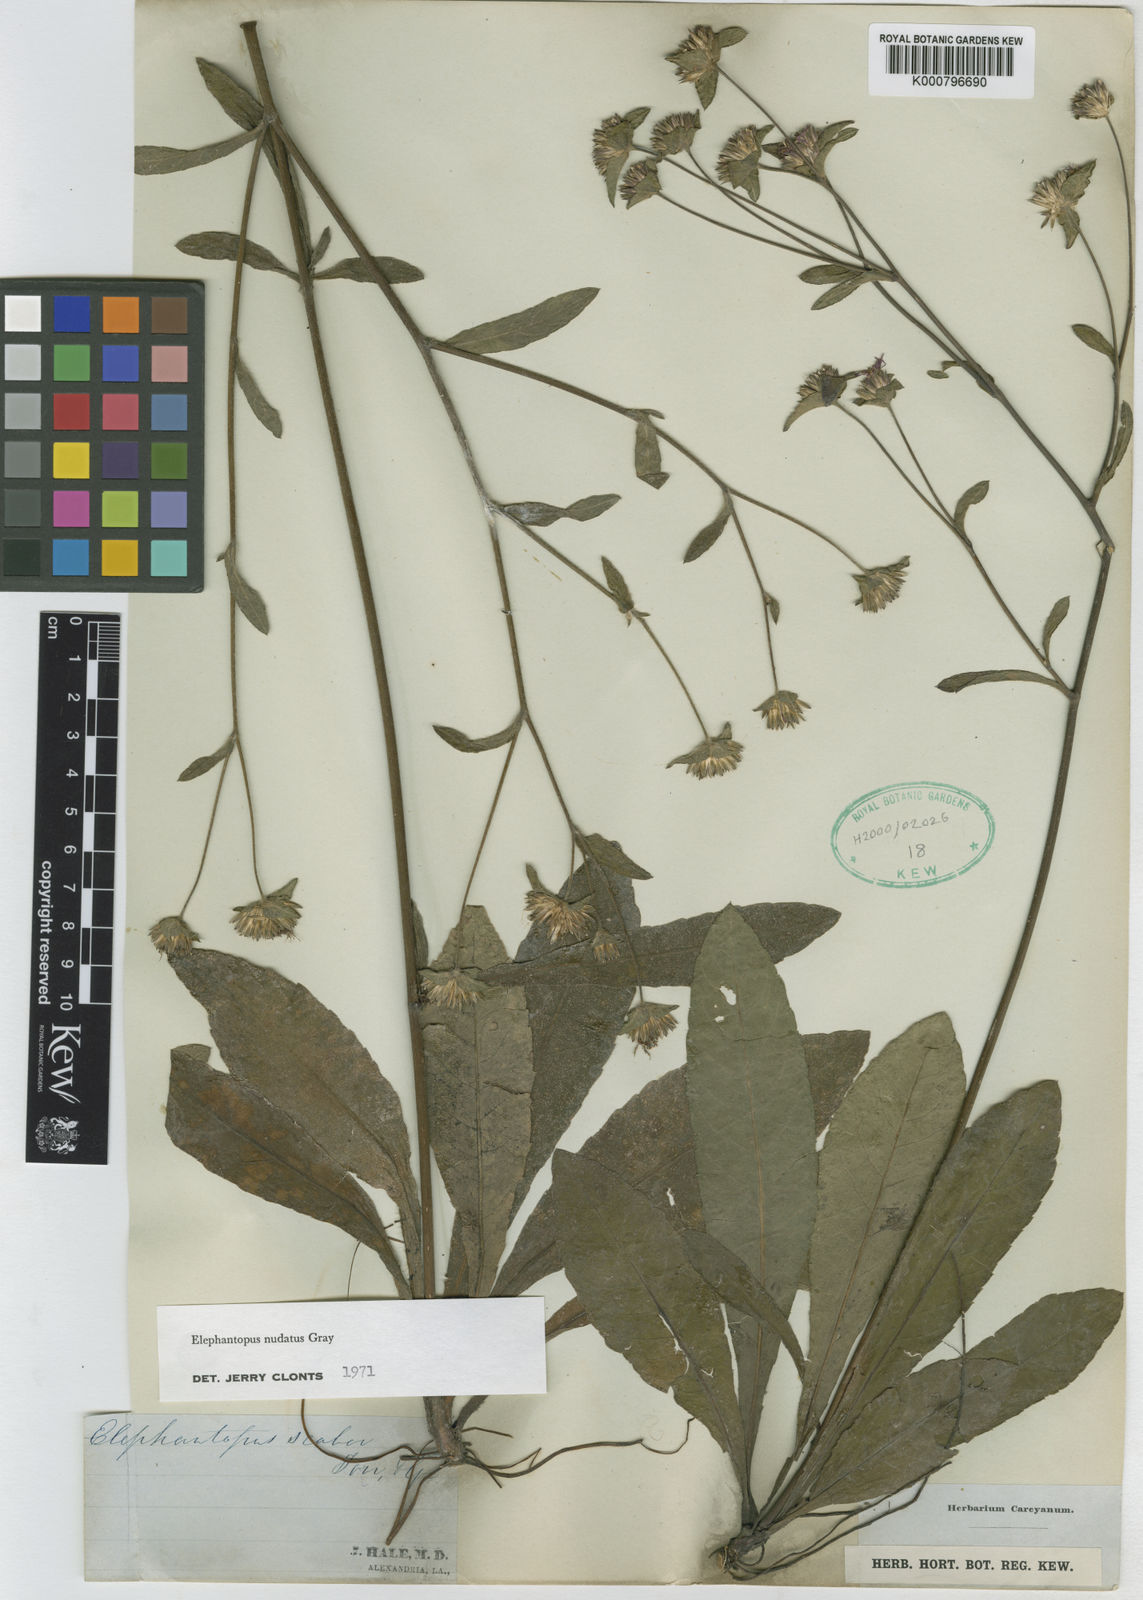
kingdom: Plantae
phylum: Tracheophyta
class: Magnoliopsida
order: Asterales
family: Asteraceae
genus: Elephantopus
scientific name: Elephantopus nudatus
